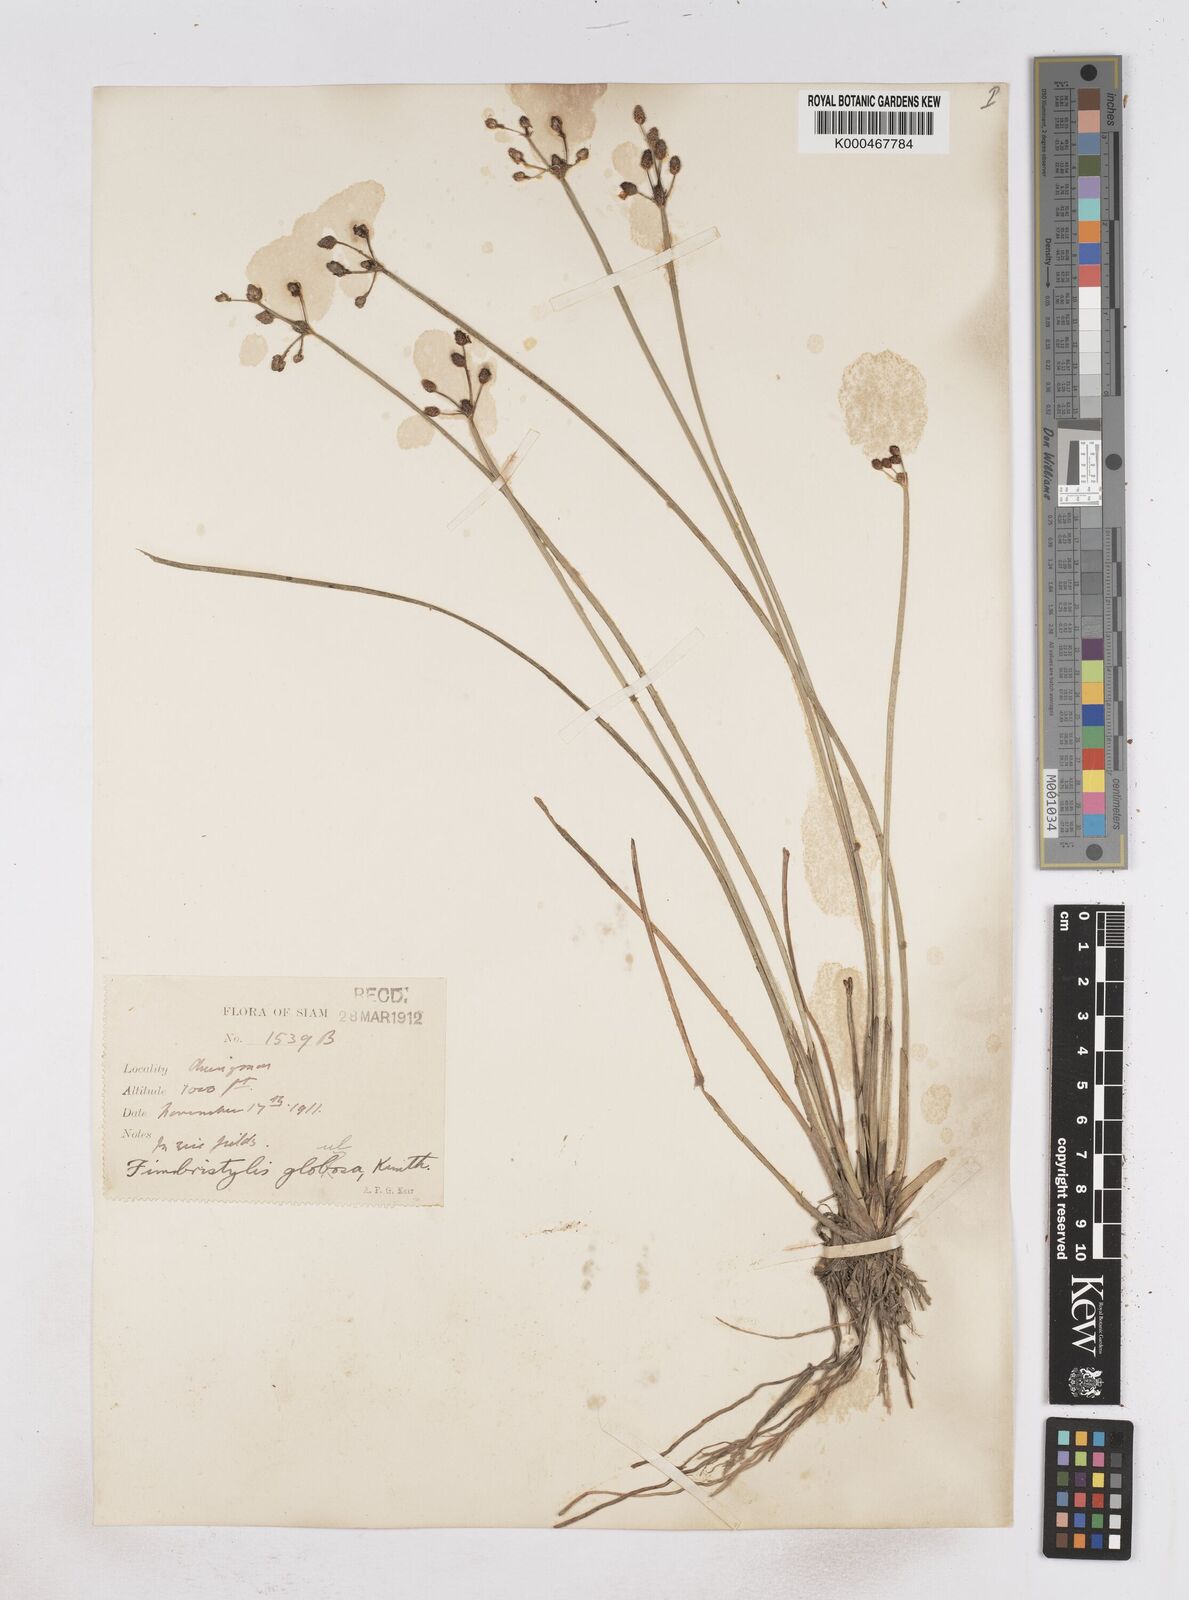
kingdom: Plantae
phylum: Tracheophyta
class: Liliopsida
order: Poales
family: Cyperaceae
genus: Fimbristylis
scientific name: Fimbristylis umbellaris
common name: Globular fimbristylis
